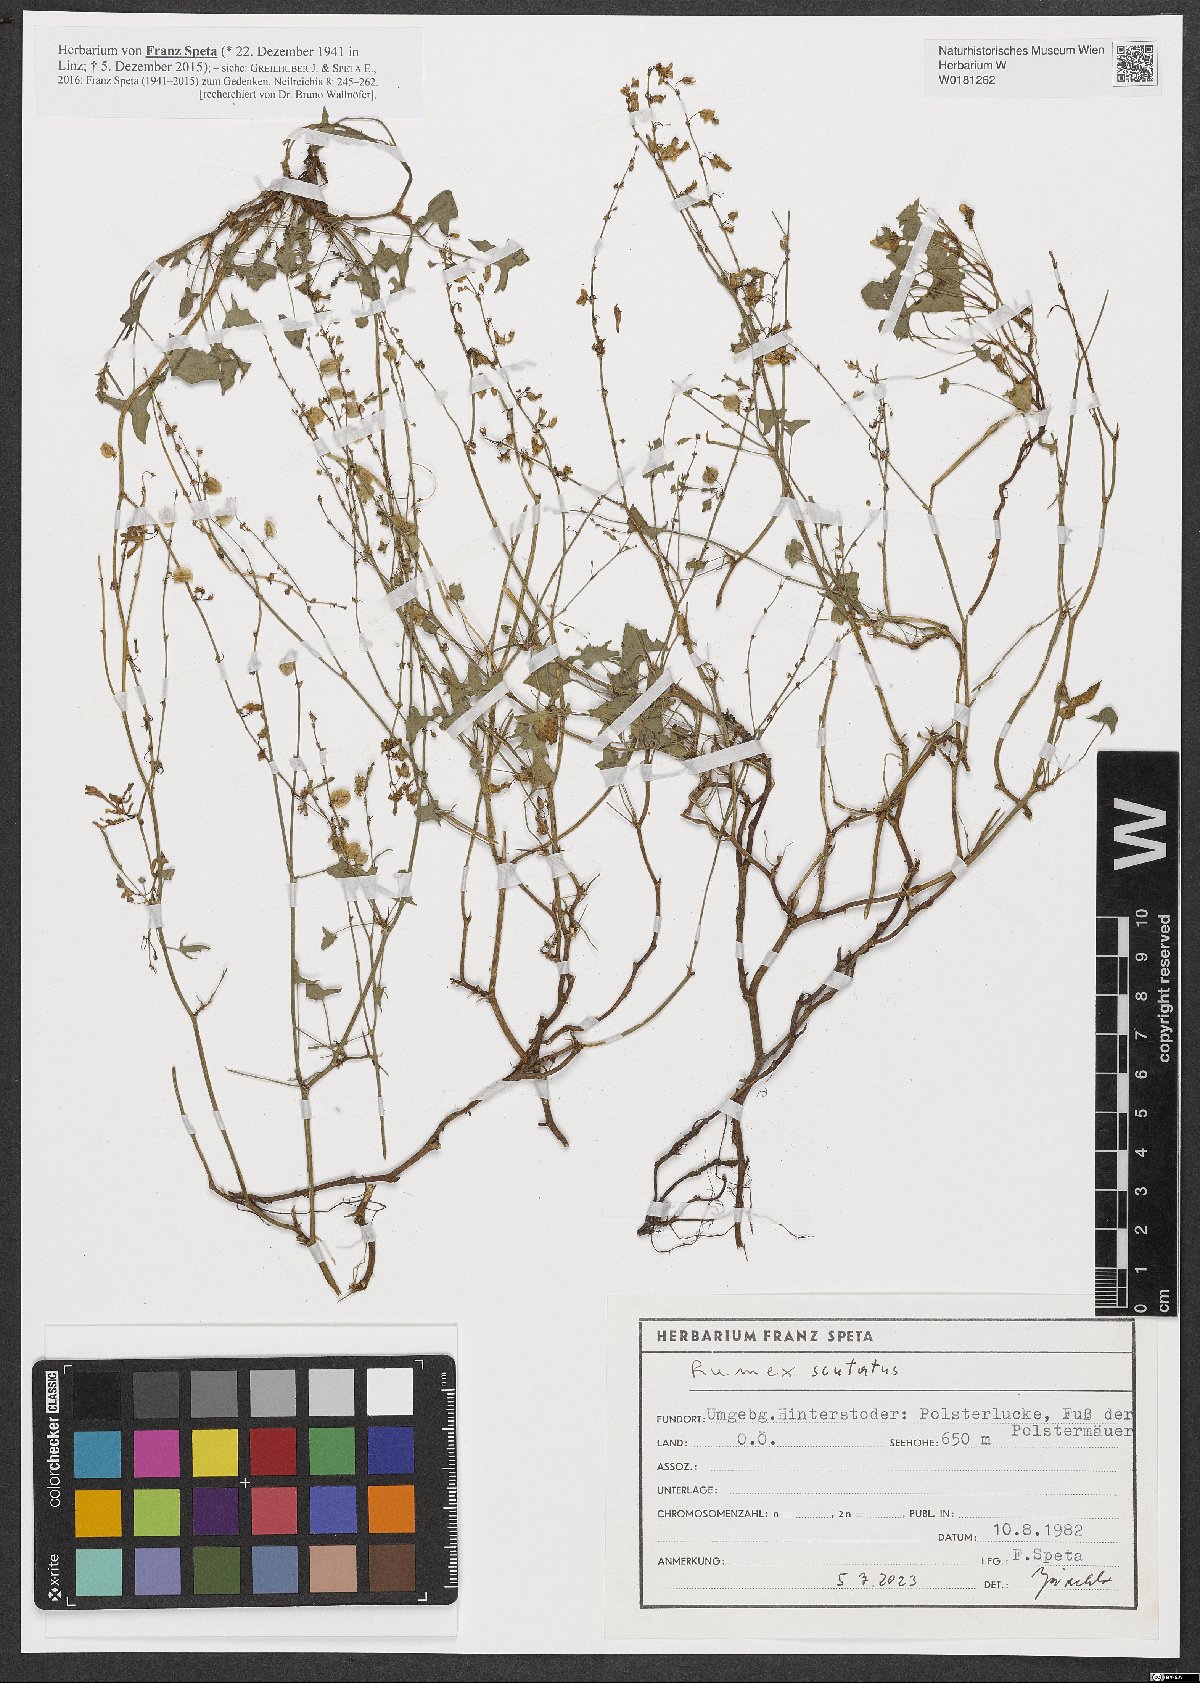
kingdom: Plantae
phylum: Tracheophyta
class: Magnoliopsida
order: Caryophyllales
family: Polygonaceae
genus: Rumex
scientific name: Rumex scutatus
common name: French sorrel
